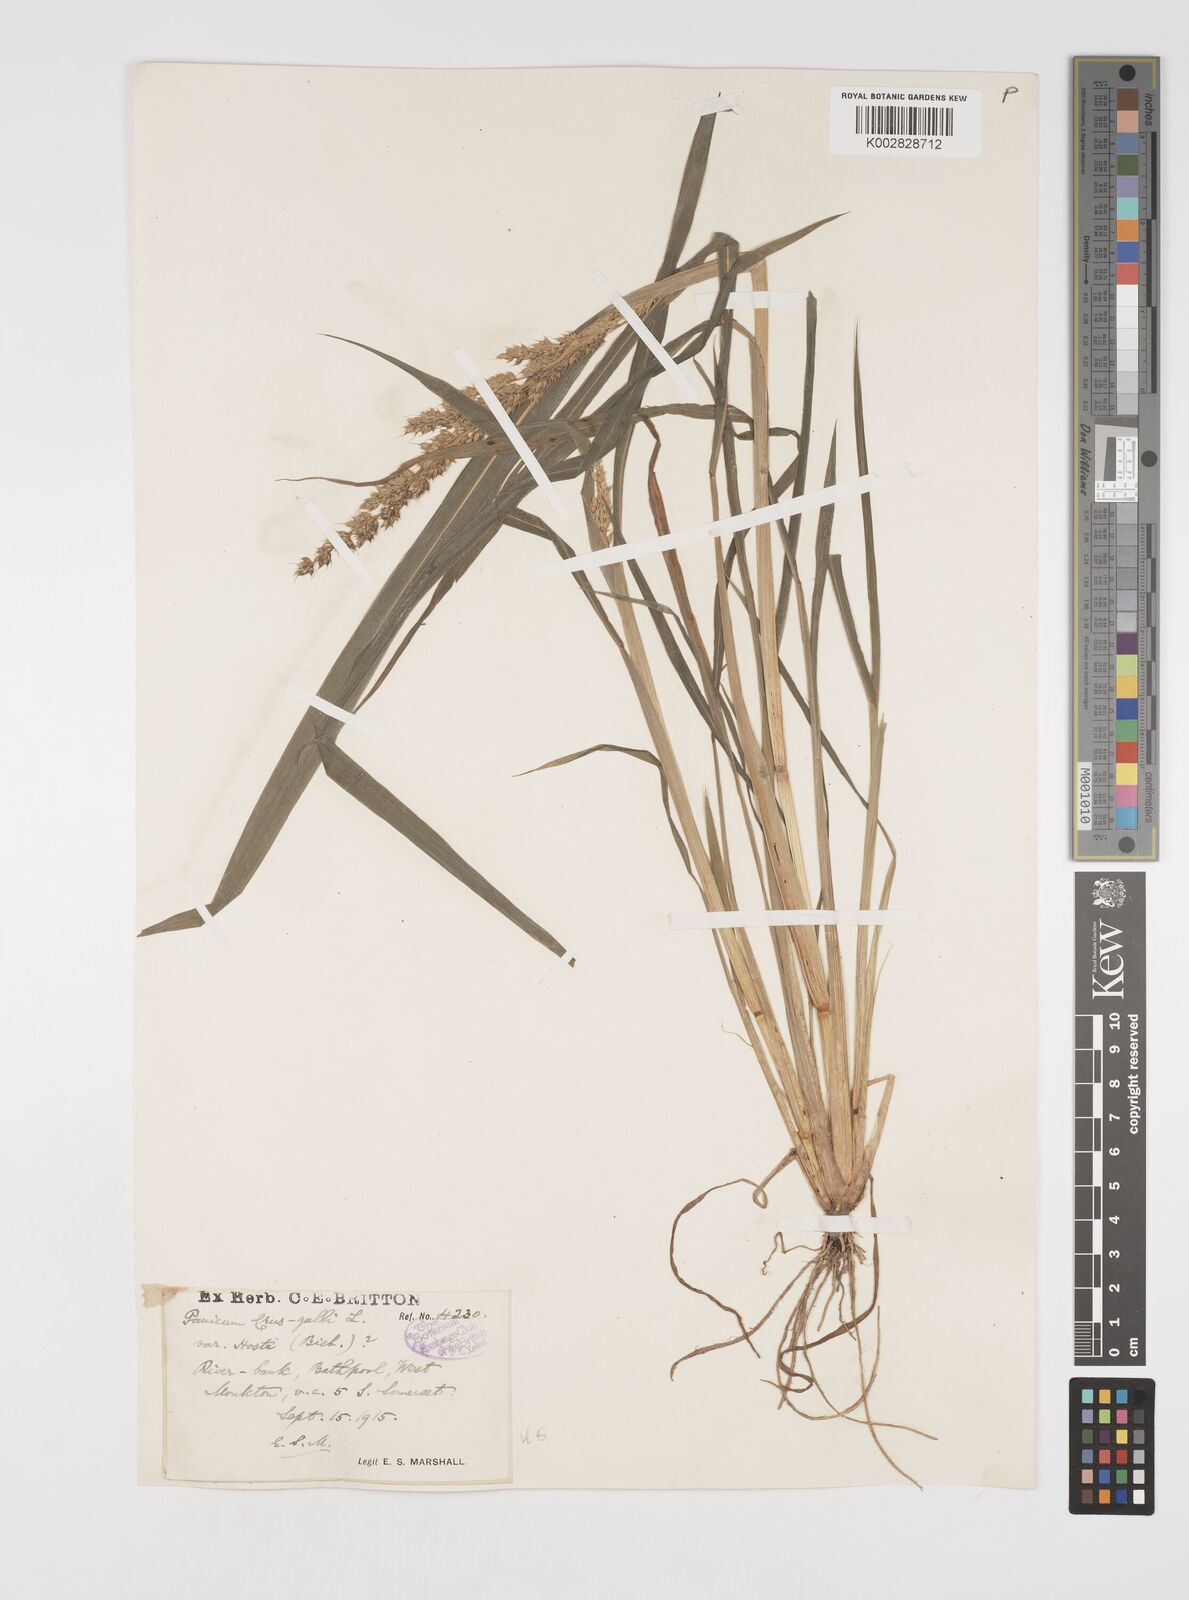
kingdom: Plantae
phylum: Tracheophyta
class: Liliopsida
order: Poales
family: Poaceae
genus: Echinochloa
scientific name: Echinochloa crus-galli
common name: Cockspur
